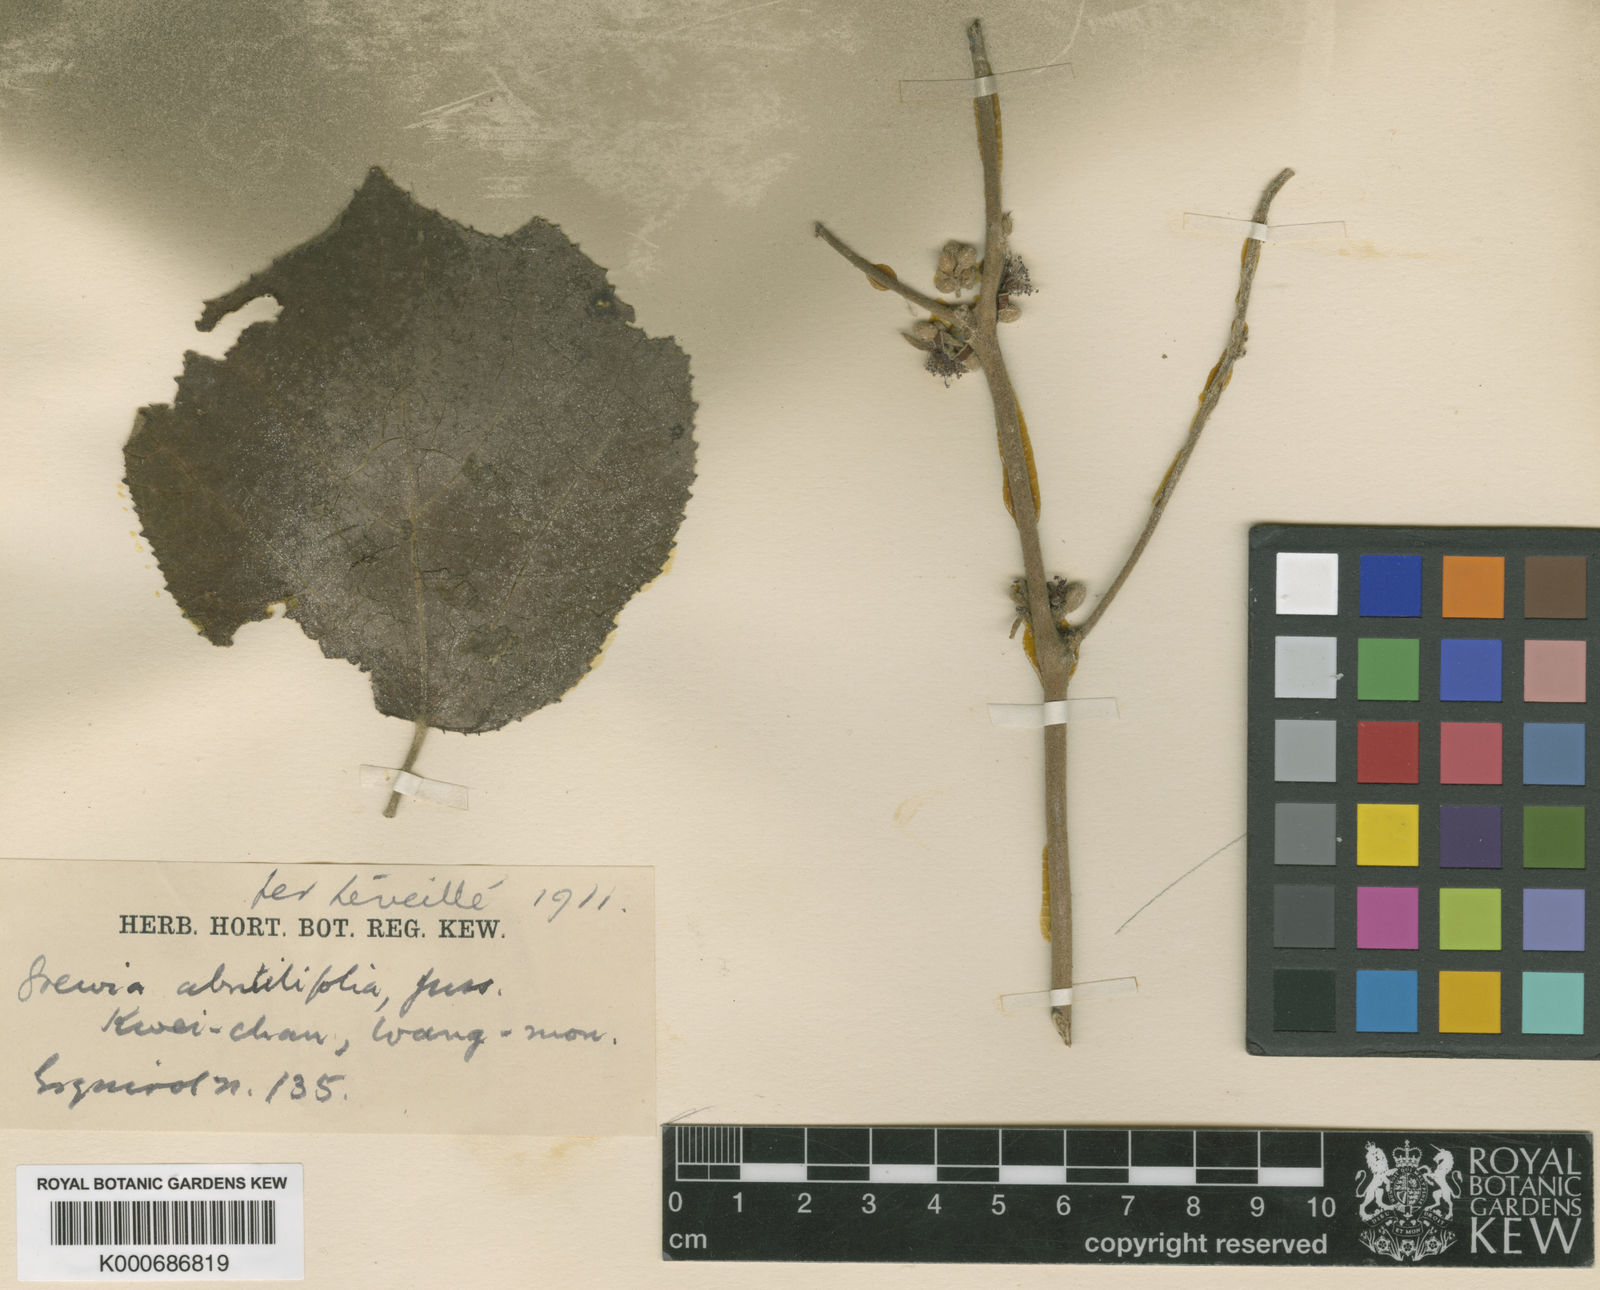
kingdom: Plantae
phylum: Tracheophyta
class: Magnoliopsida
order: Malvales
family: Malvaceae
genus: Grewia
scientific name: Grewia abutilifolia
